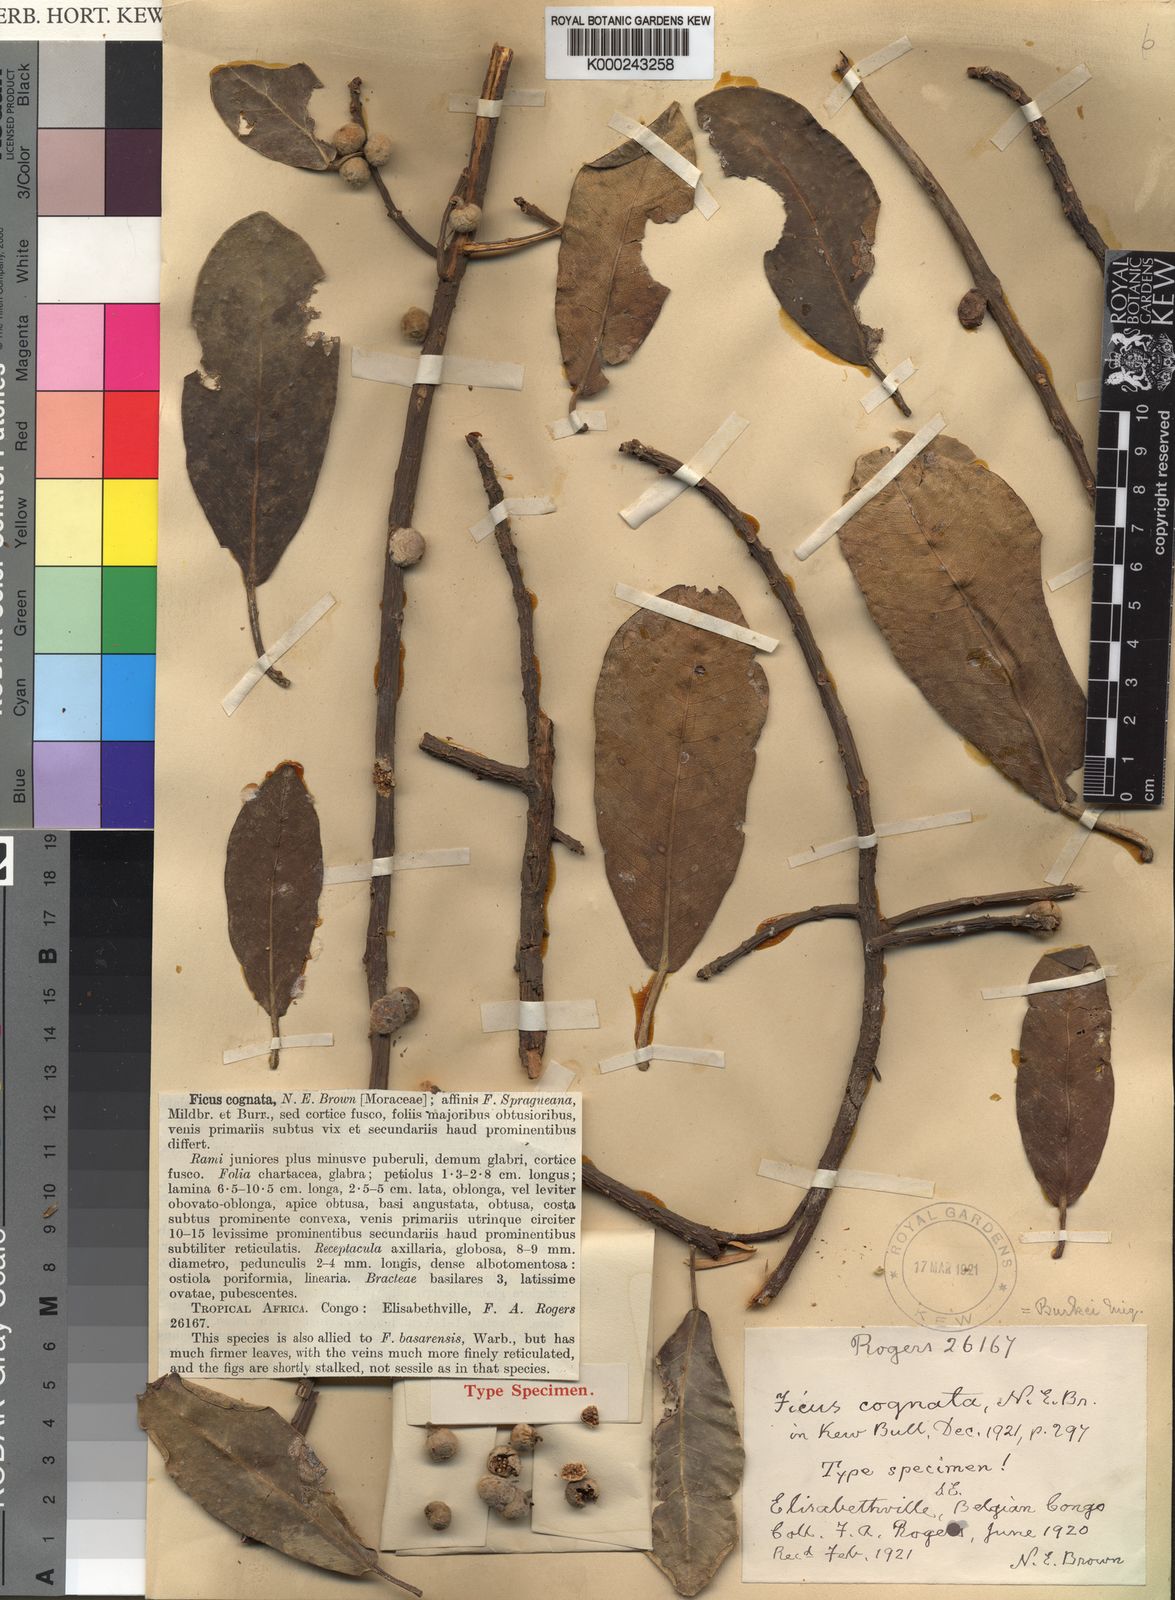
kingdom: Plantae
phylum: Tracheophyta
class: Magnoliopsida
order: Rosales
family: Moraceae
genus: Ficus
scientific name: Ficus thonningii
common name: Fig
